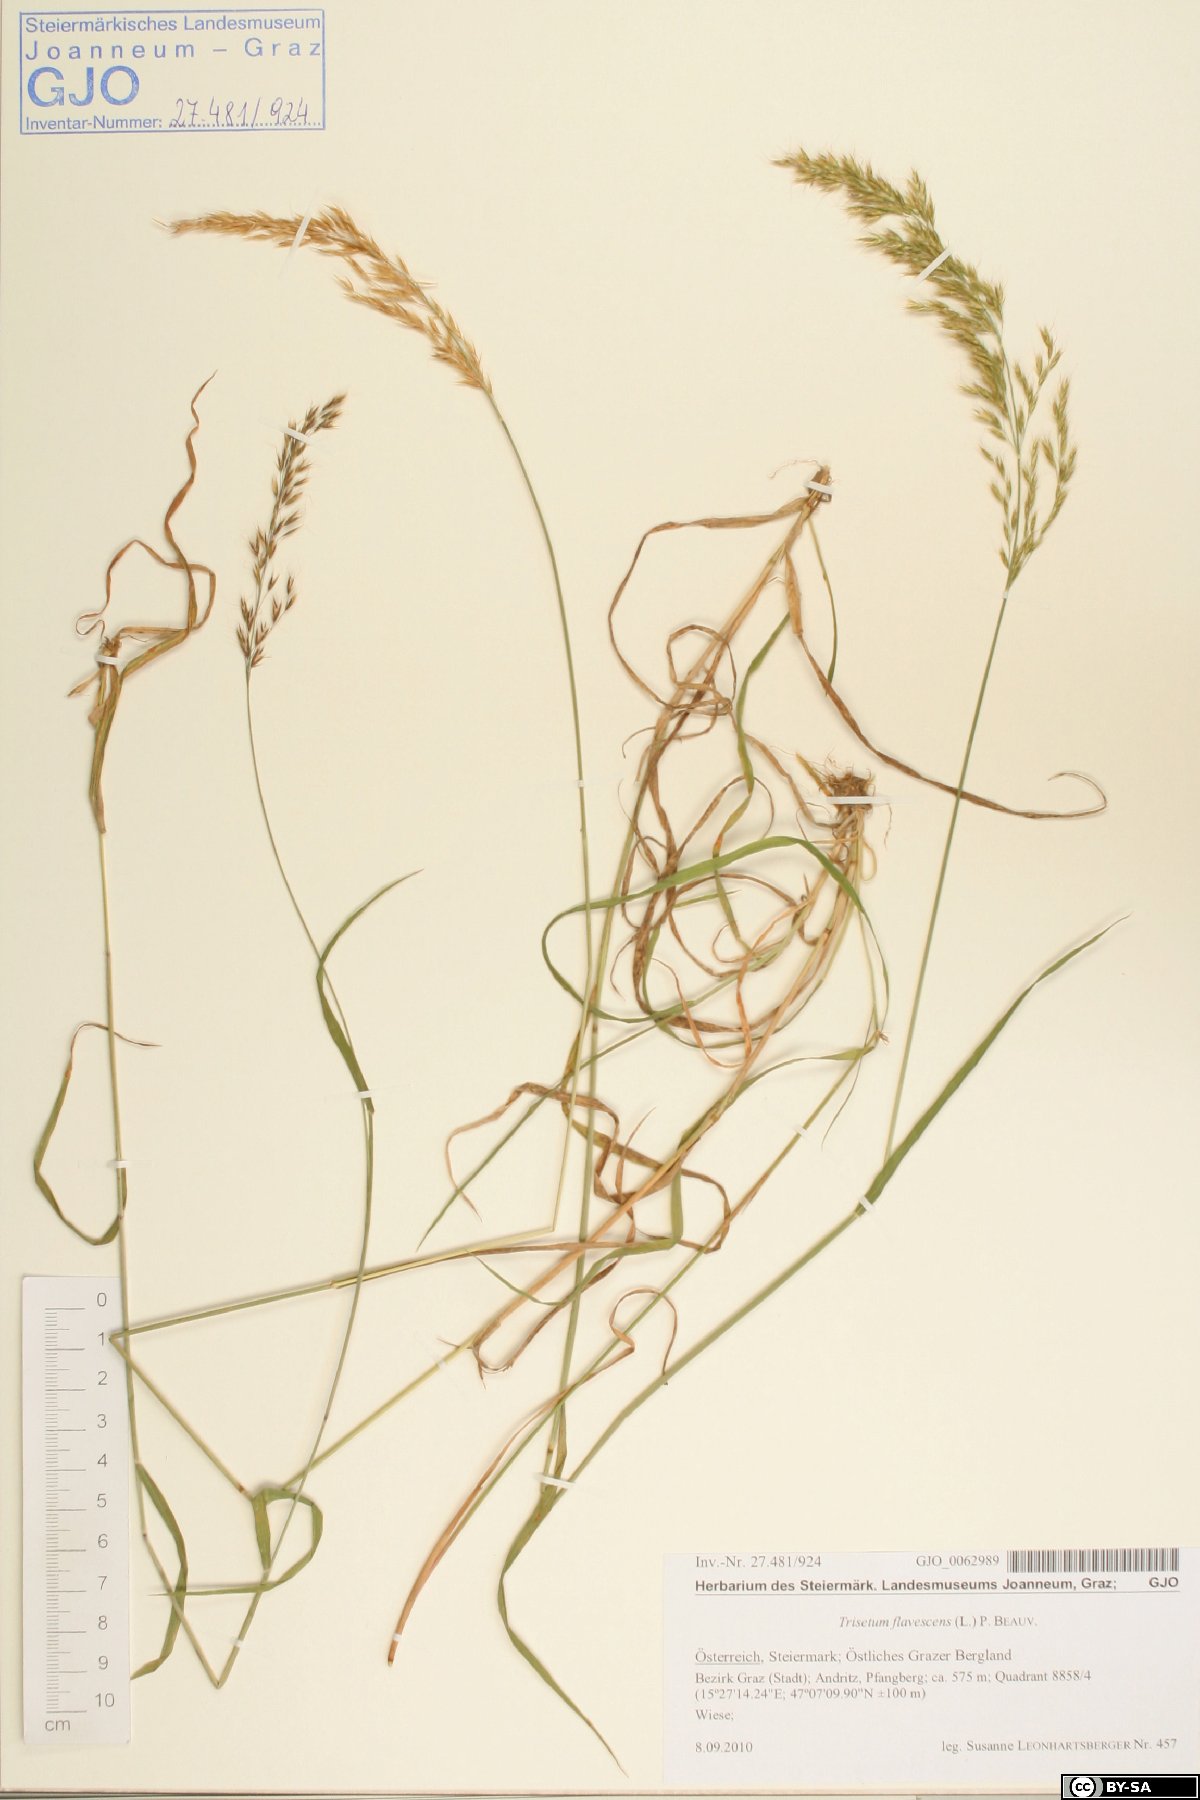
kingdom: Plantae
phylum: Tracheophyta
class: Liliopsida
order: Poales
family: Poaceae
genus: Trisetum
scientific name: Trisetum flavescens
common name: Yellow oat-grass
